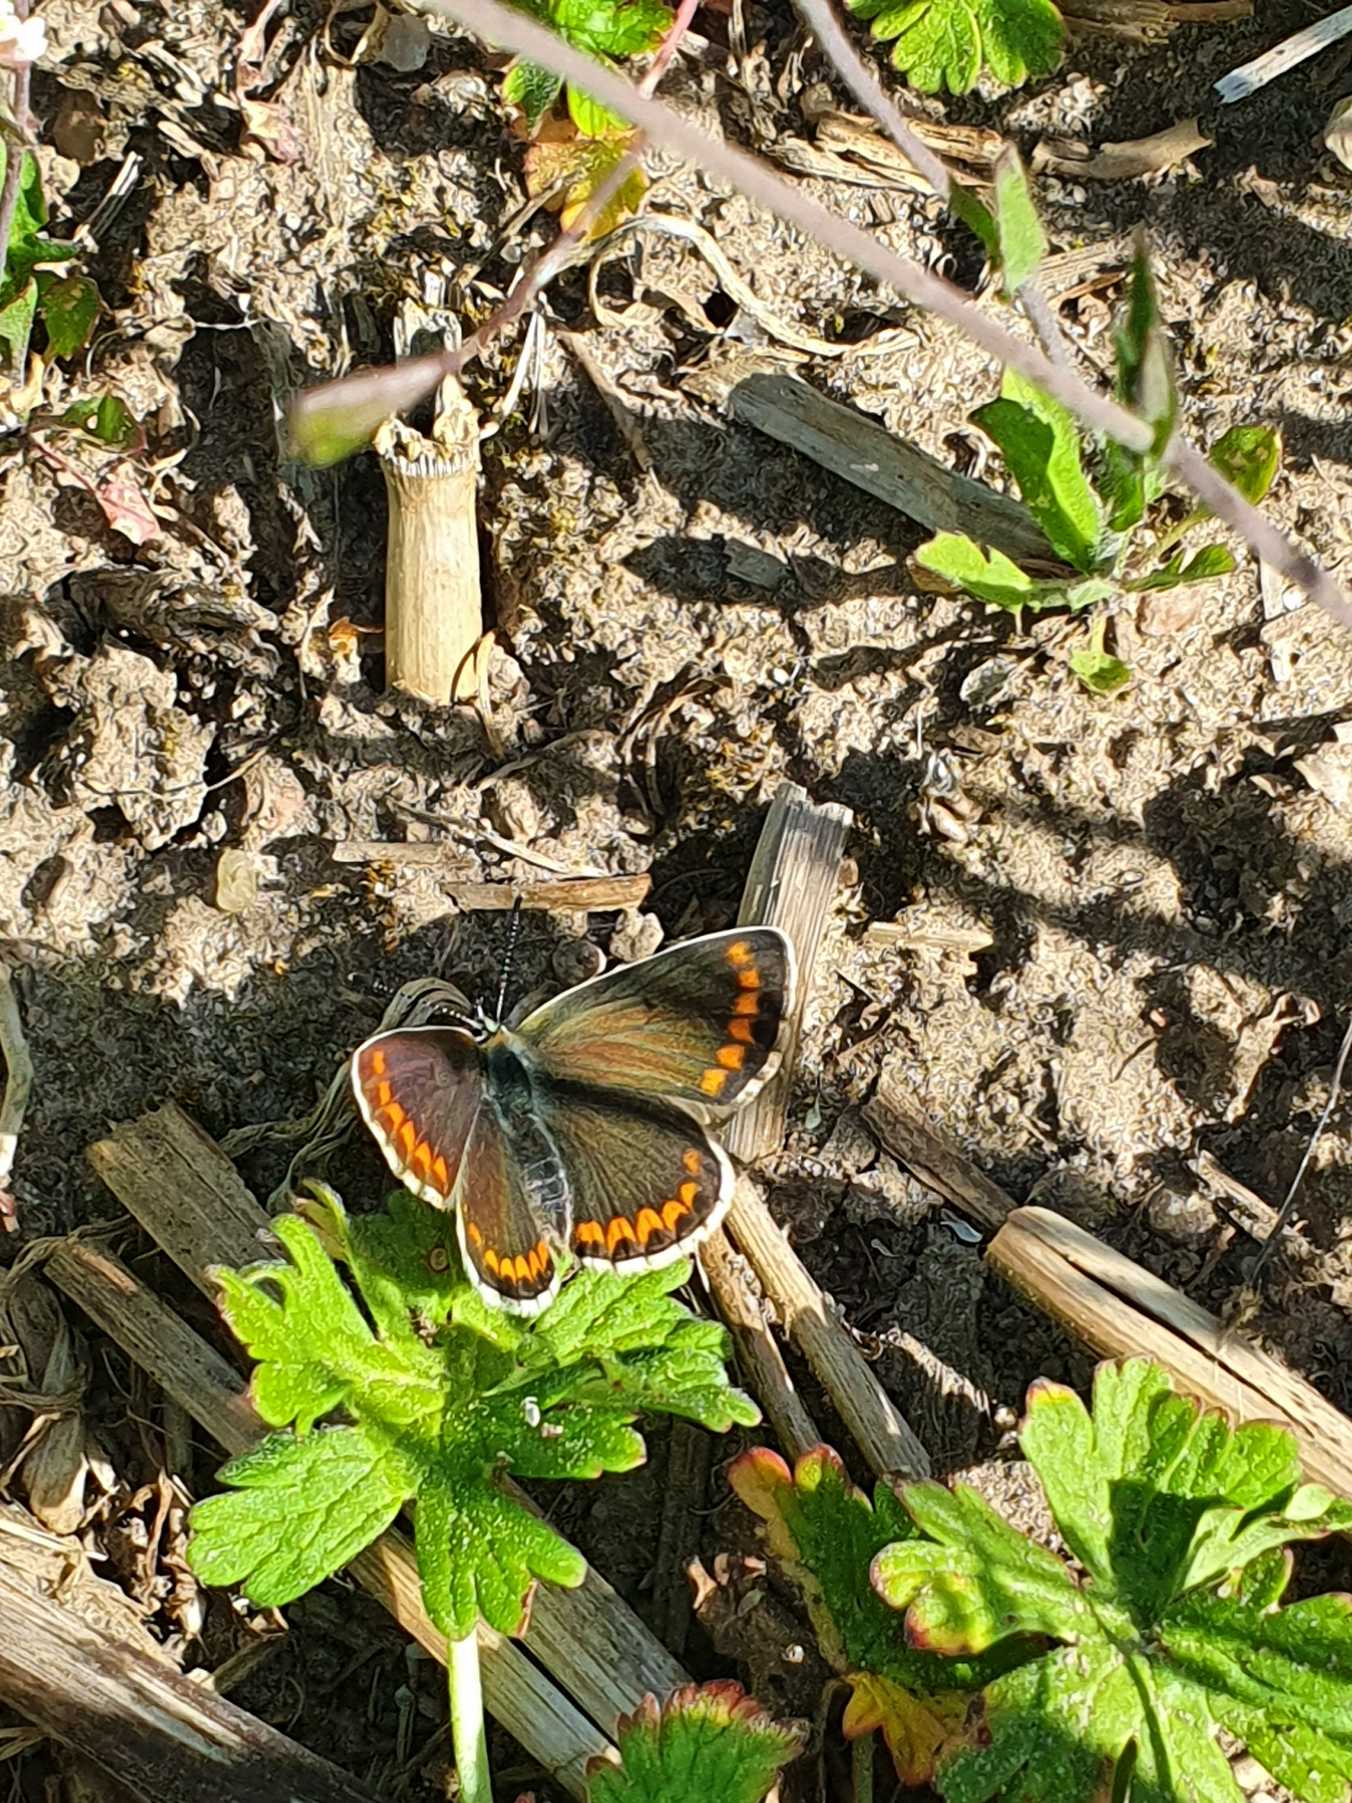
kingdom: Animalia
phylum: Arthropoda
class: Insecta
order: Lepidoptera
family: Lycaenidae
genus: Aricia
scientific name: Aricia agestis
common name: Rødplettet blåfugl
